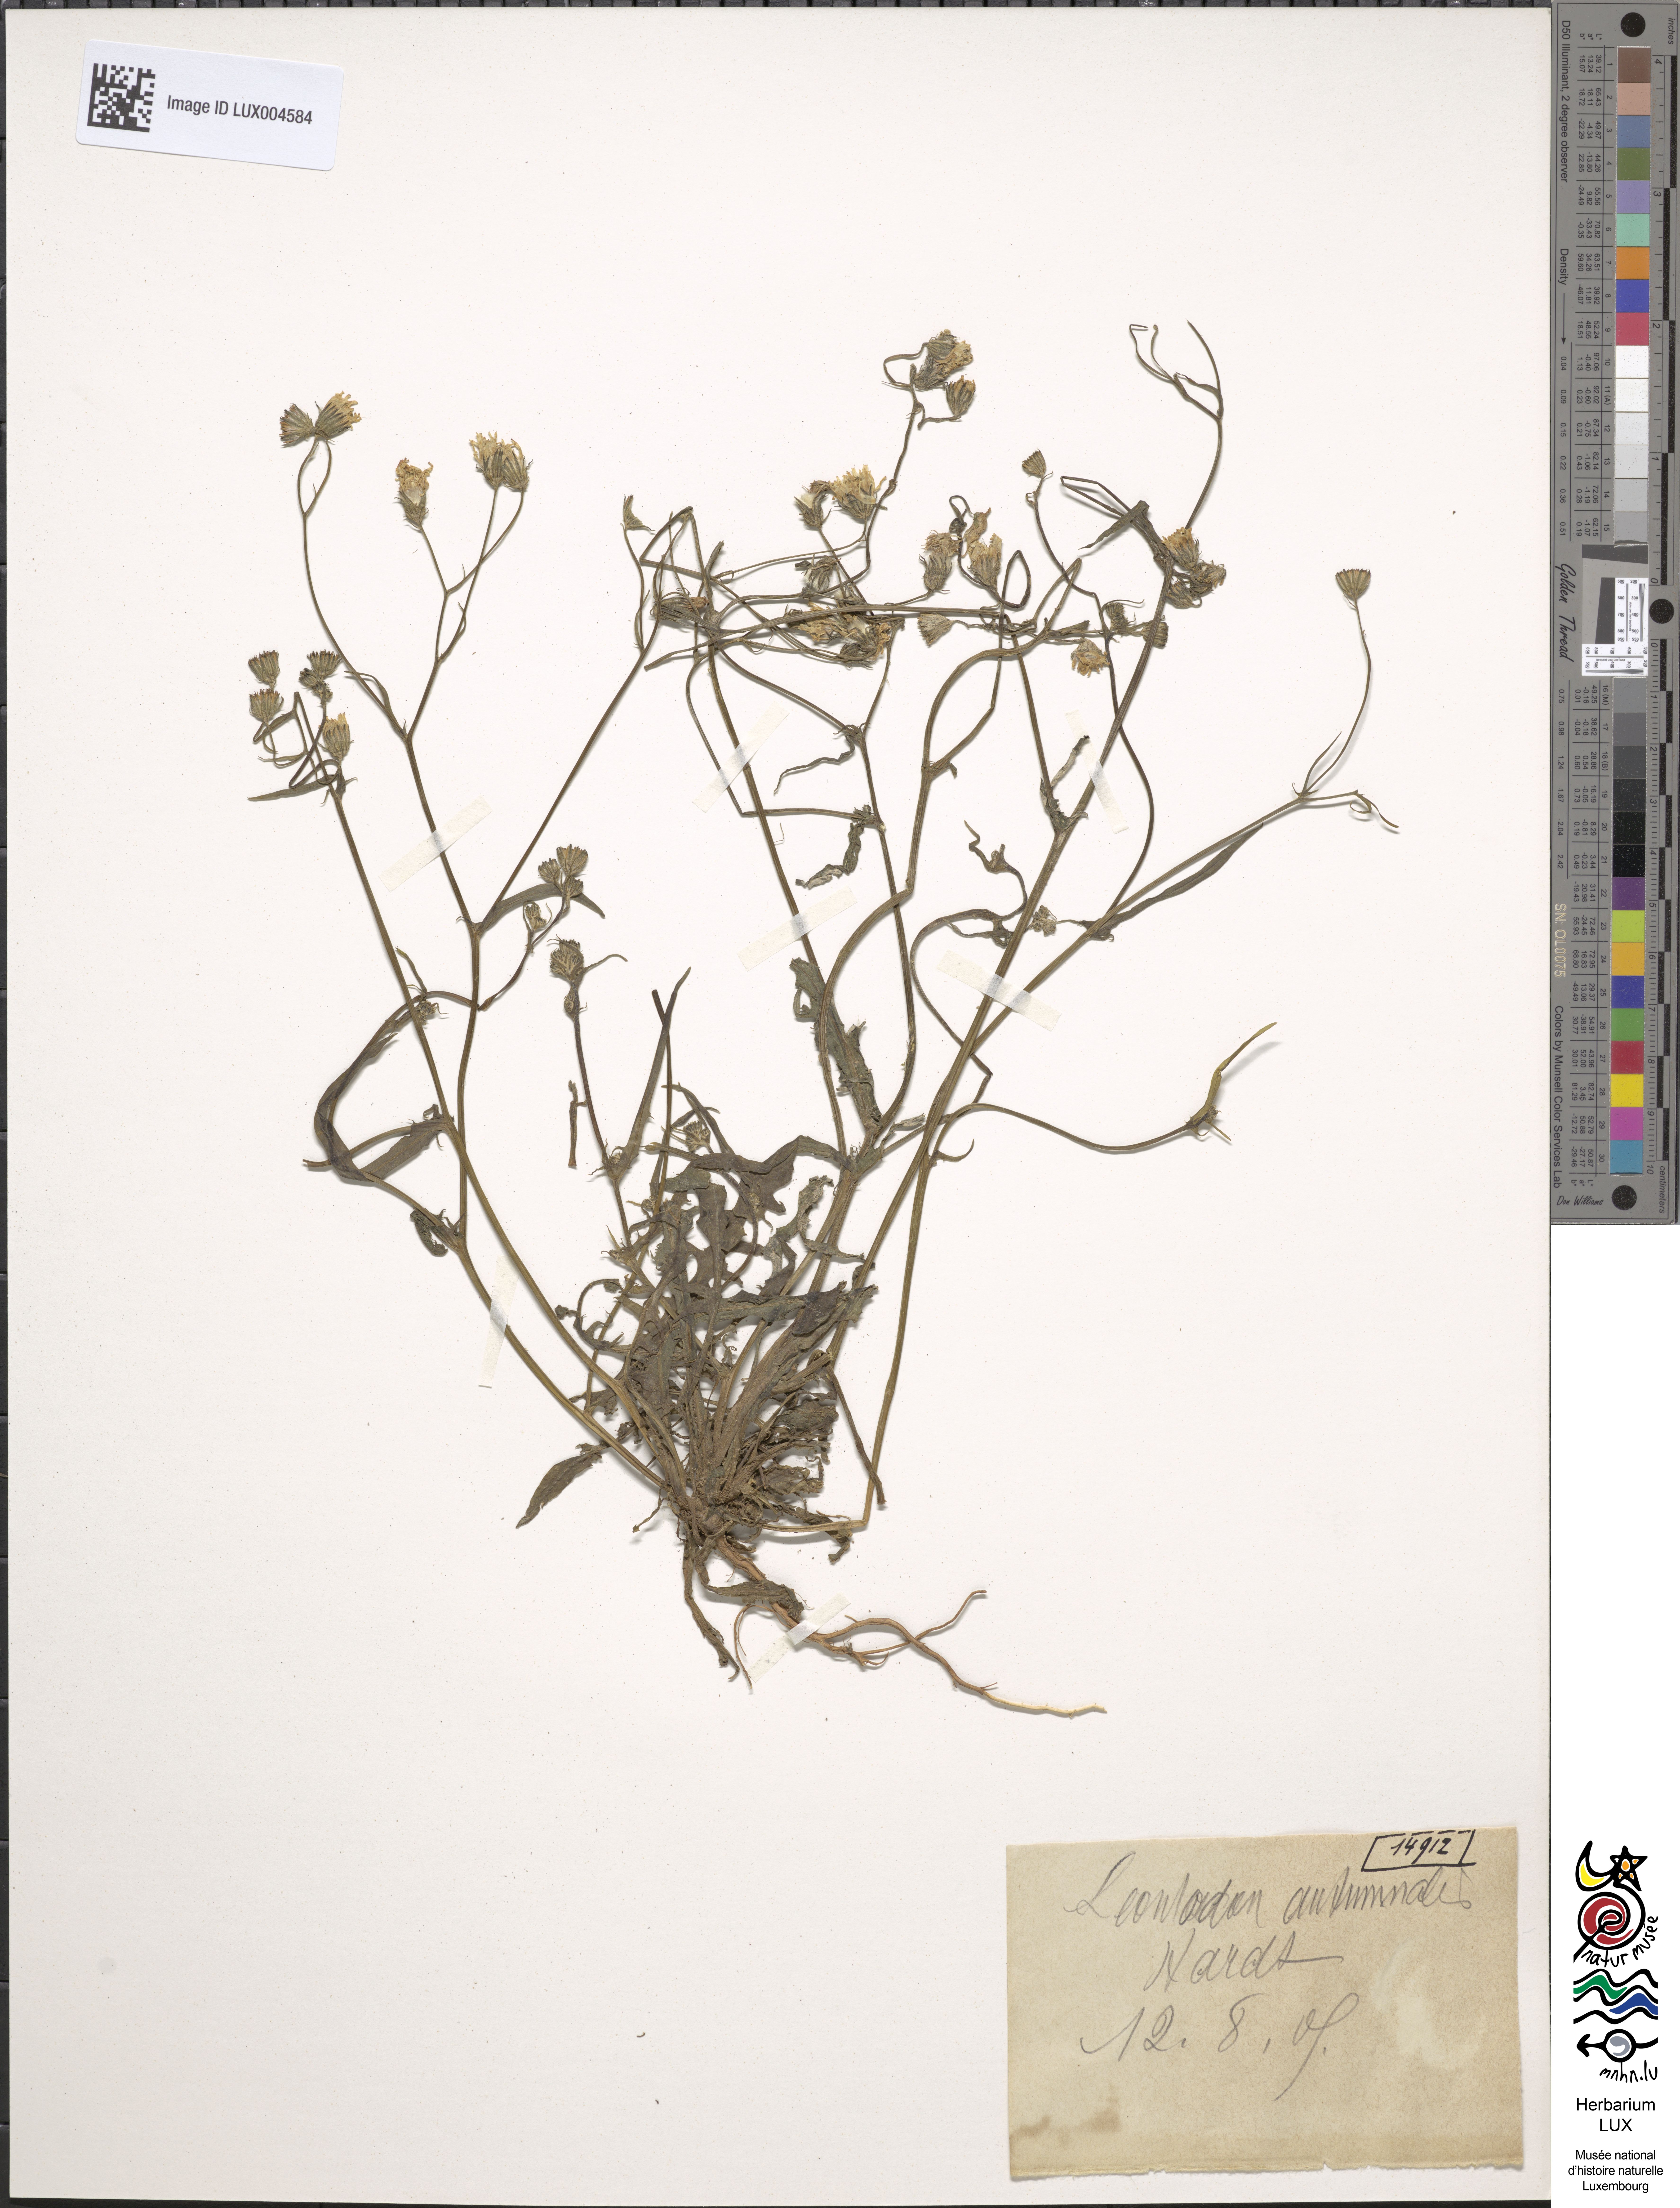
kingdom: Plantae
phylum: Tracheophyta
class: Magnoliopsida
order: Asterales
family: Asteraceae
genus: Scorzoneroides
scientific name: Scorzoneroides autumnalis
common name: Autumn hawkbit
